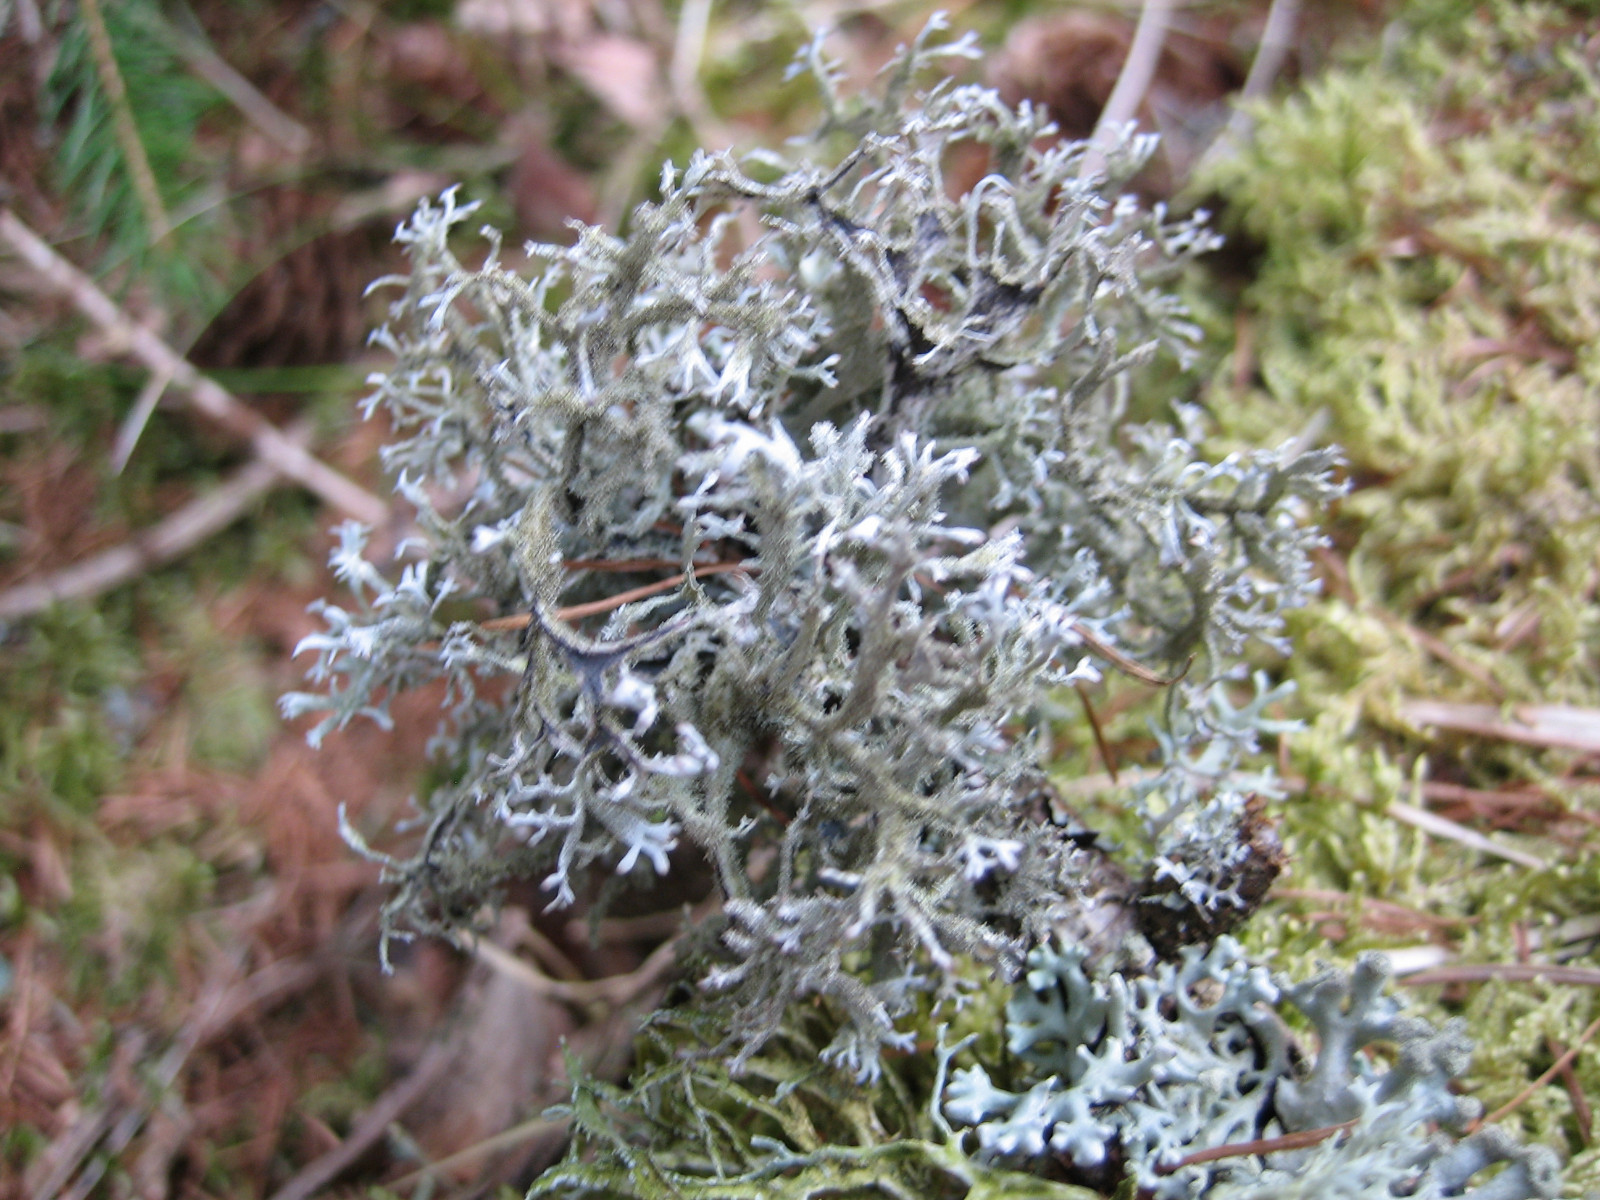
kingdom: Fungi
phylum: Ascomycota
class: Lecanoromycetes
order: Lecanorales
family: Parmeliaceae
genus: Pseudevernia
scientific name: Pseudevernia furfuracea
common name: grå fyrrelav
